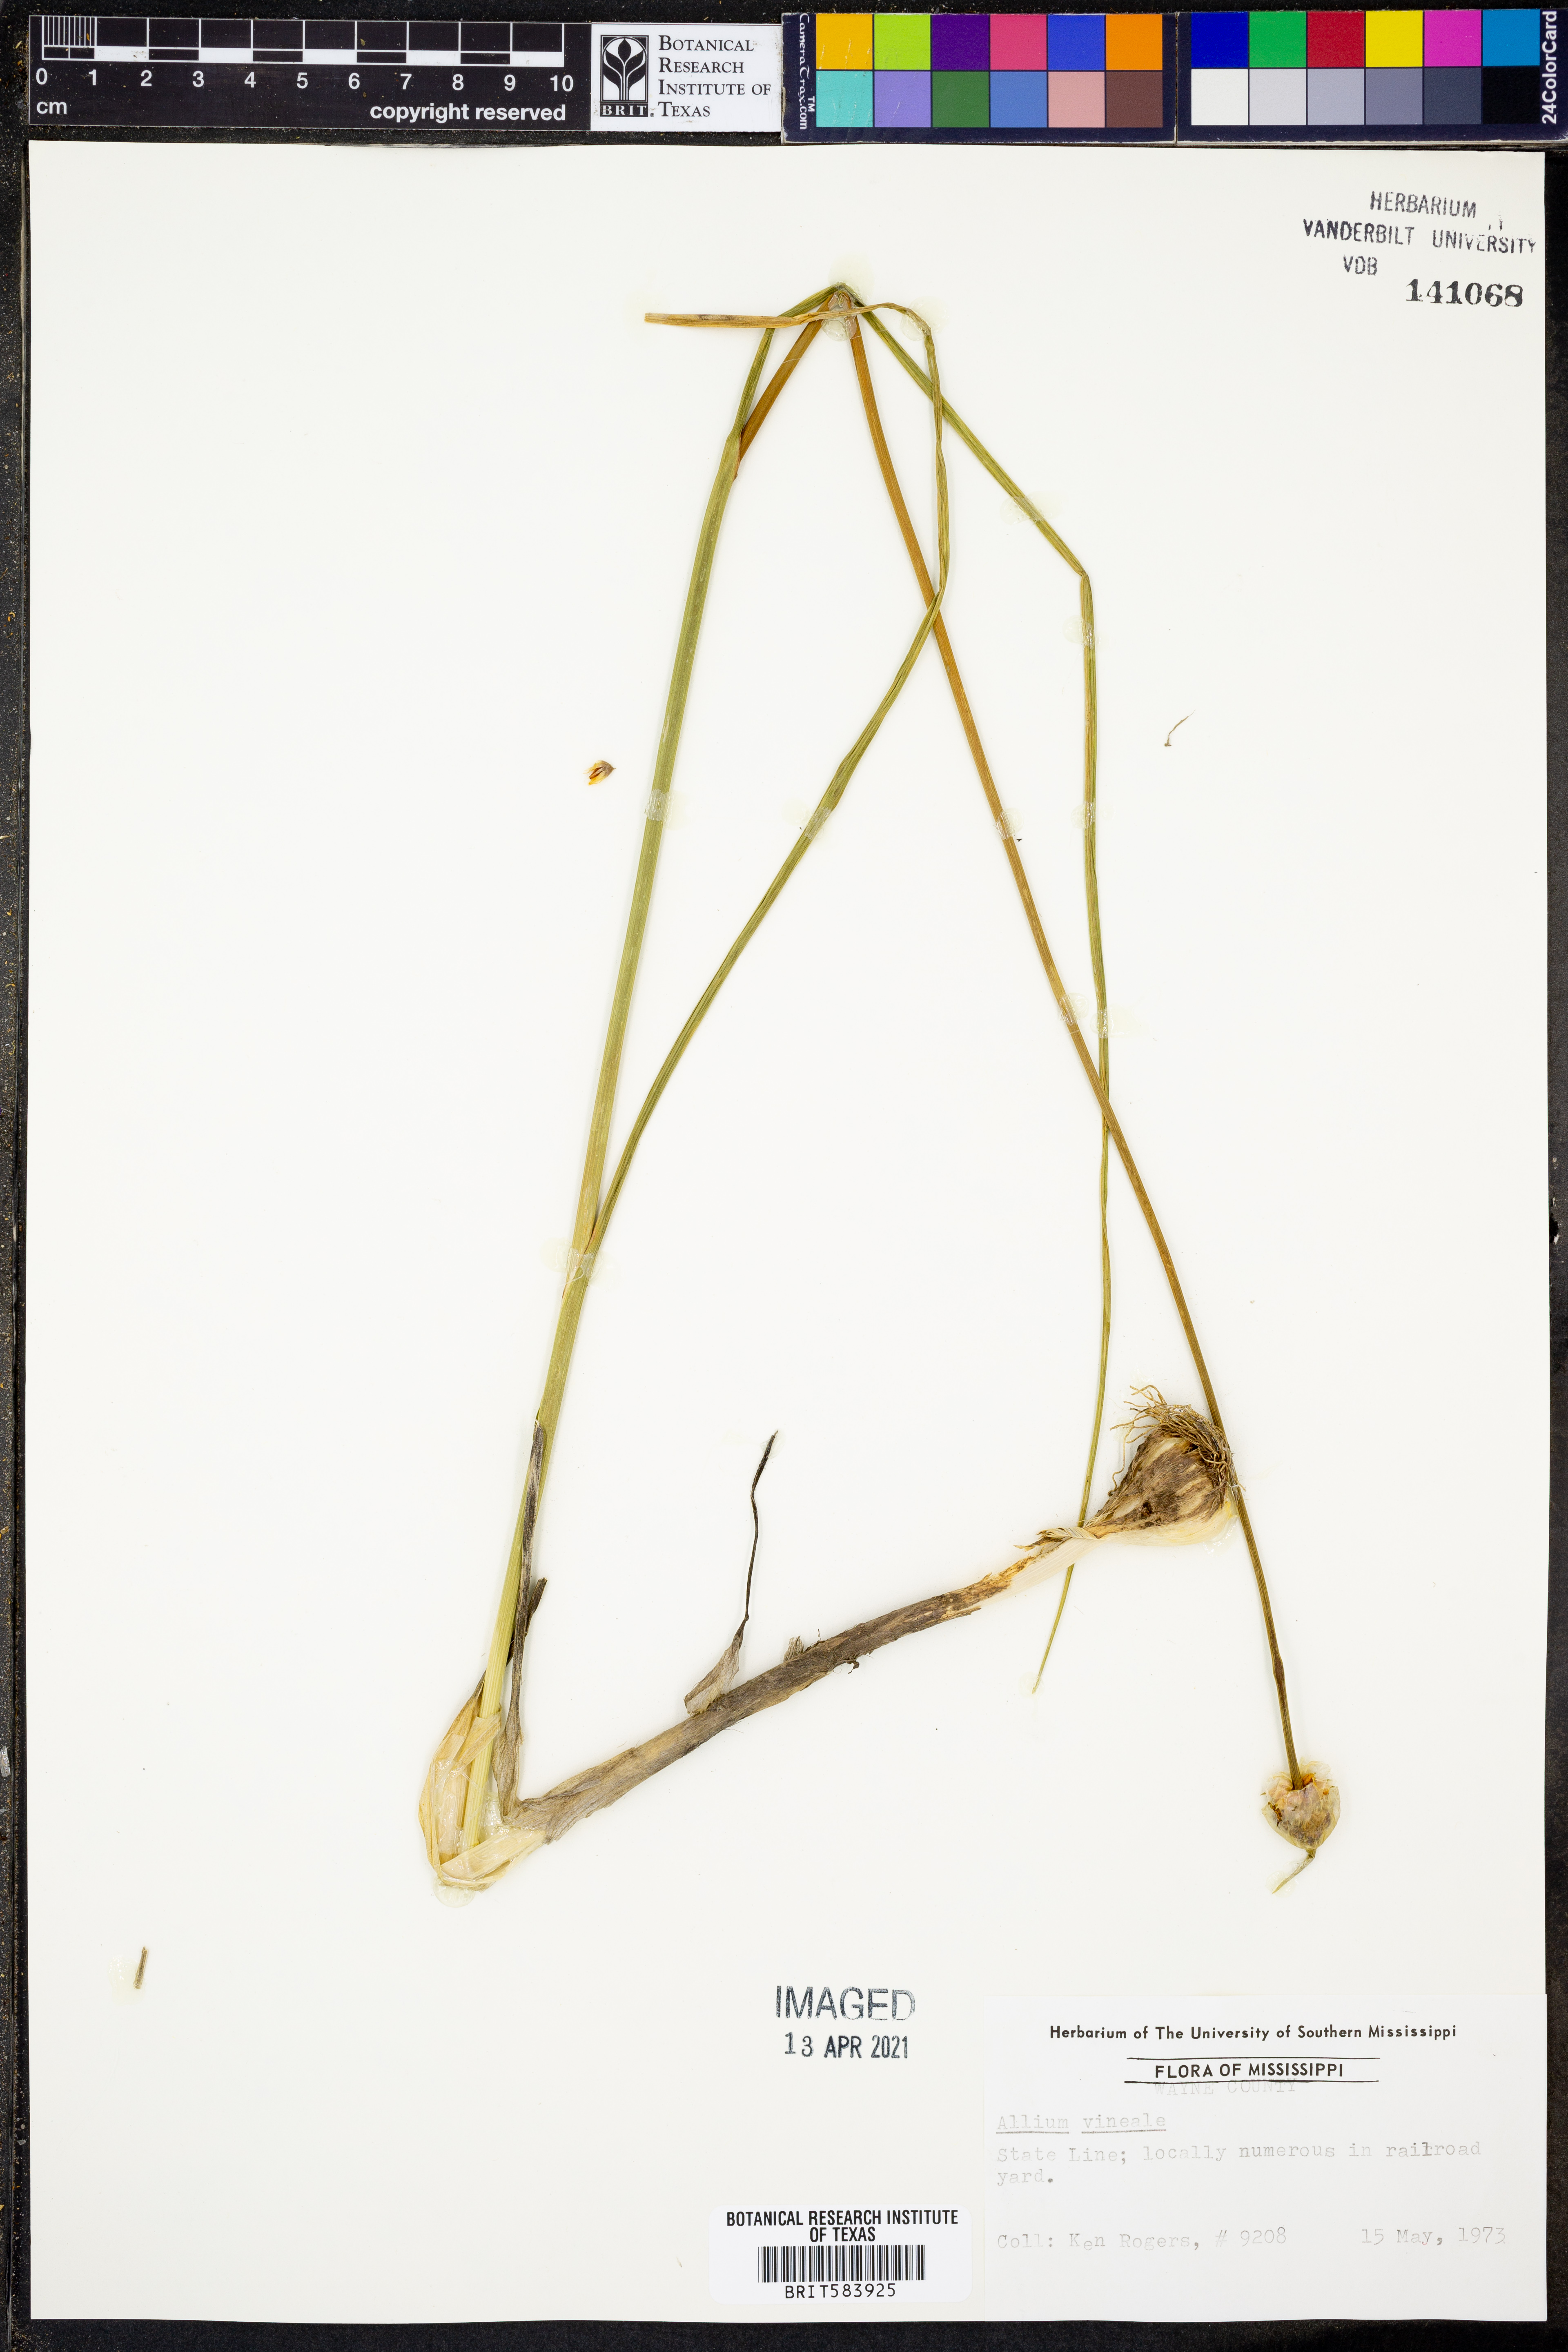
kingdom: Plantae
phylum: Tracheophyta
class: Liliopsida
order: Asparagales
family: Amaryllidaceae
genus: Allium
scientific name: Allium vineale
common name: Crow garlic
